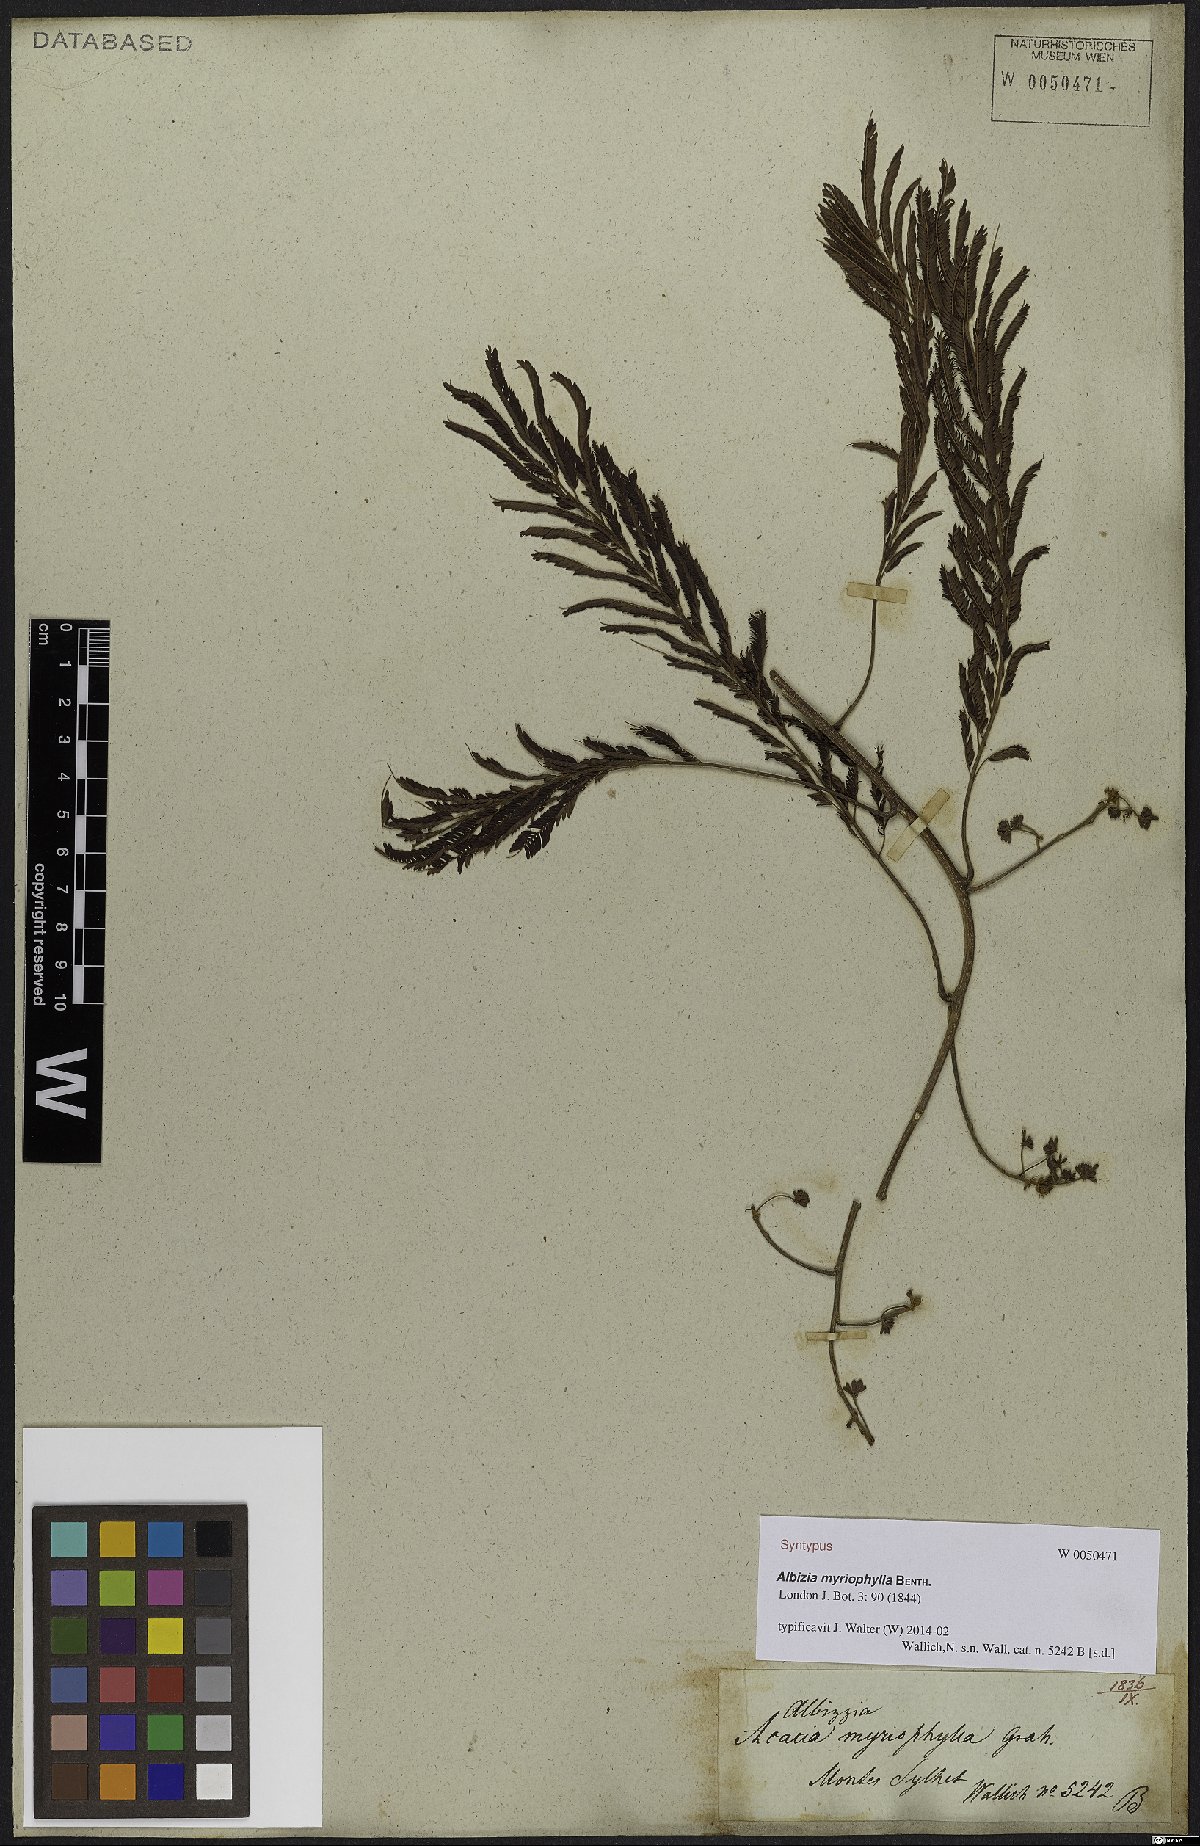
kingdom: Plantae
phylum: Tracheophyta
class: Magnoliopsida
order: Fabales
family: Fabaceae
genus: Albizia
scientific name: Albizia myriophylla
